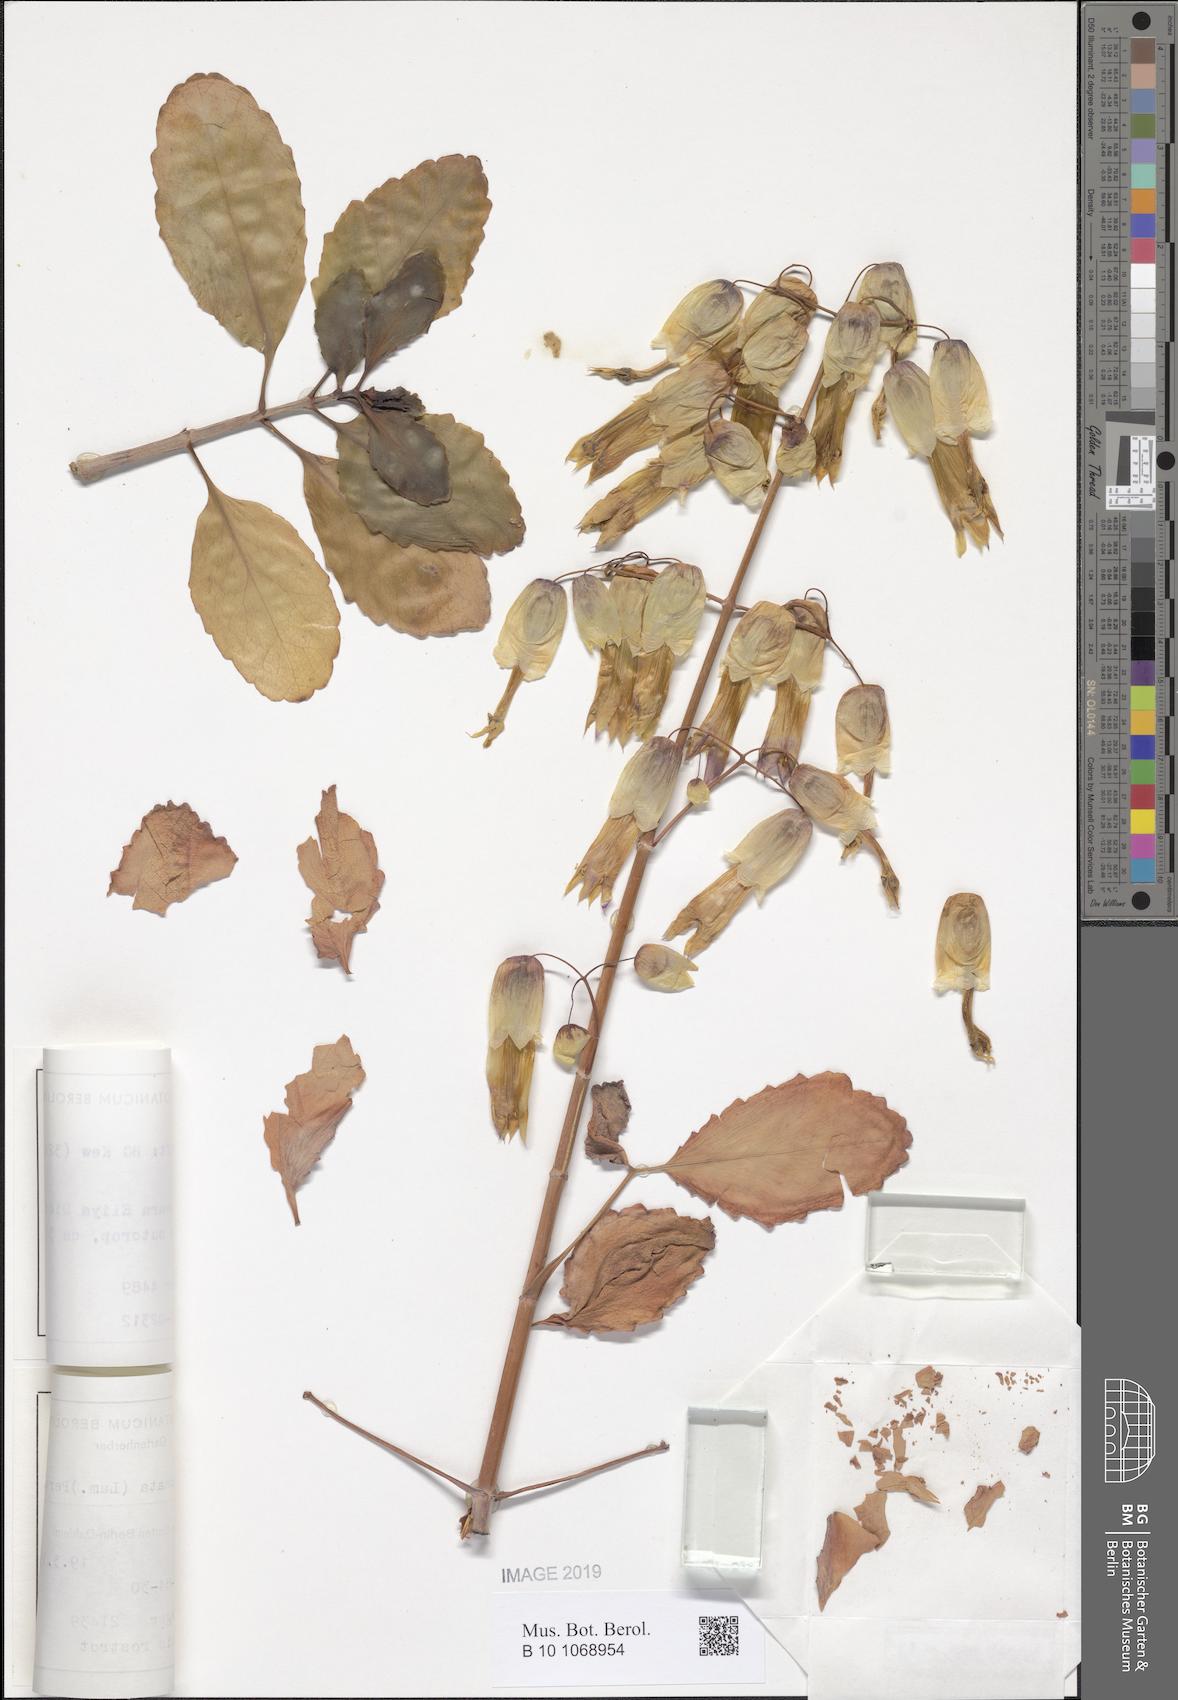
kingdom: Plantae
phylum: Tracheophyta
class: Magnoliopsida
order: Saxifragales
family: Crassulaceae
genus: Kalanchoe
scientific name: Kalanchoe pinnata
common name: Cathedral bells
